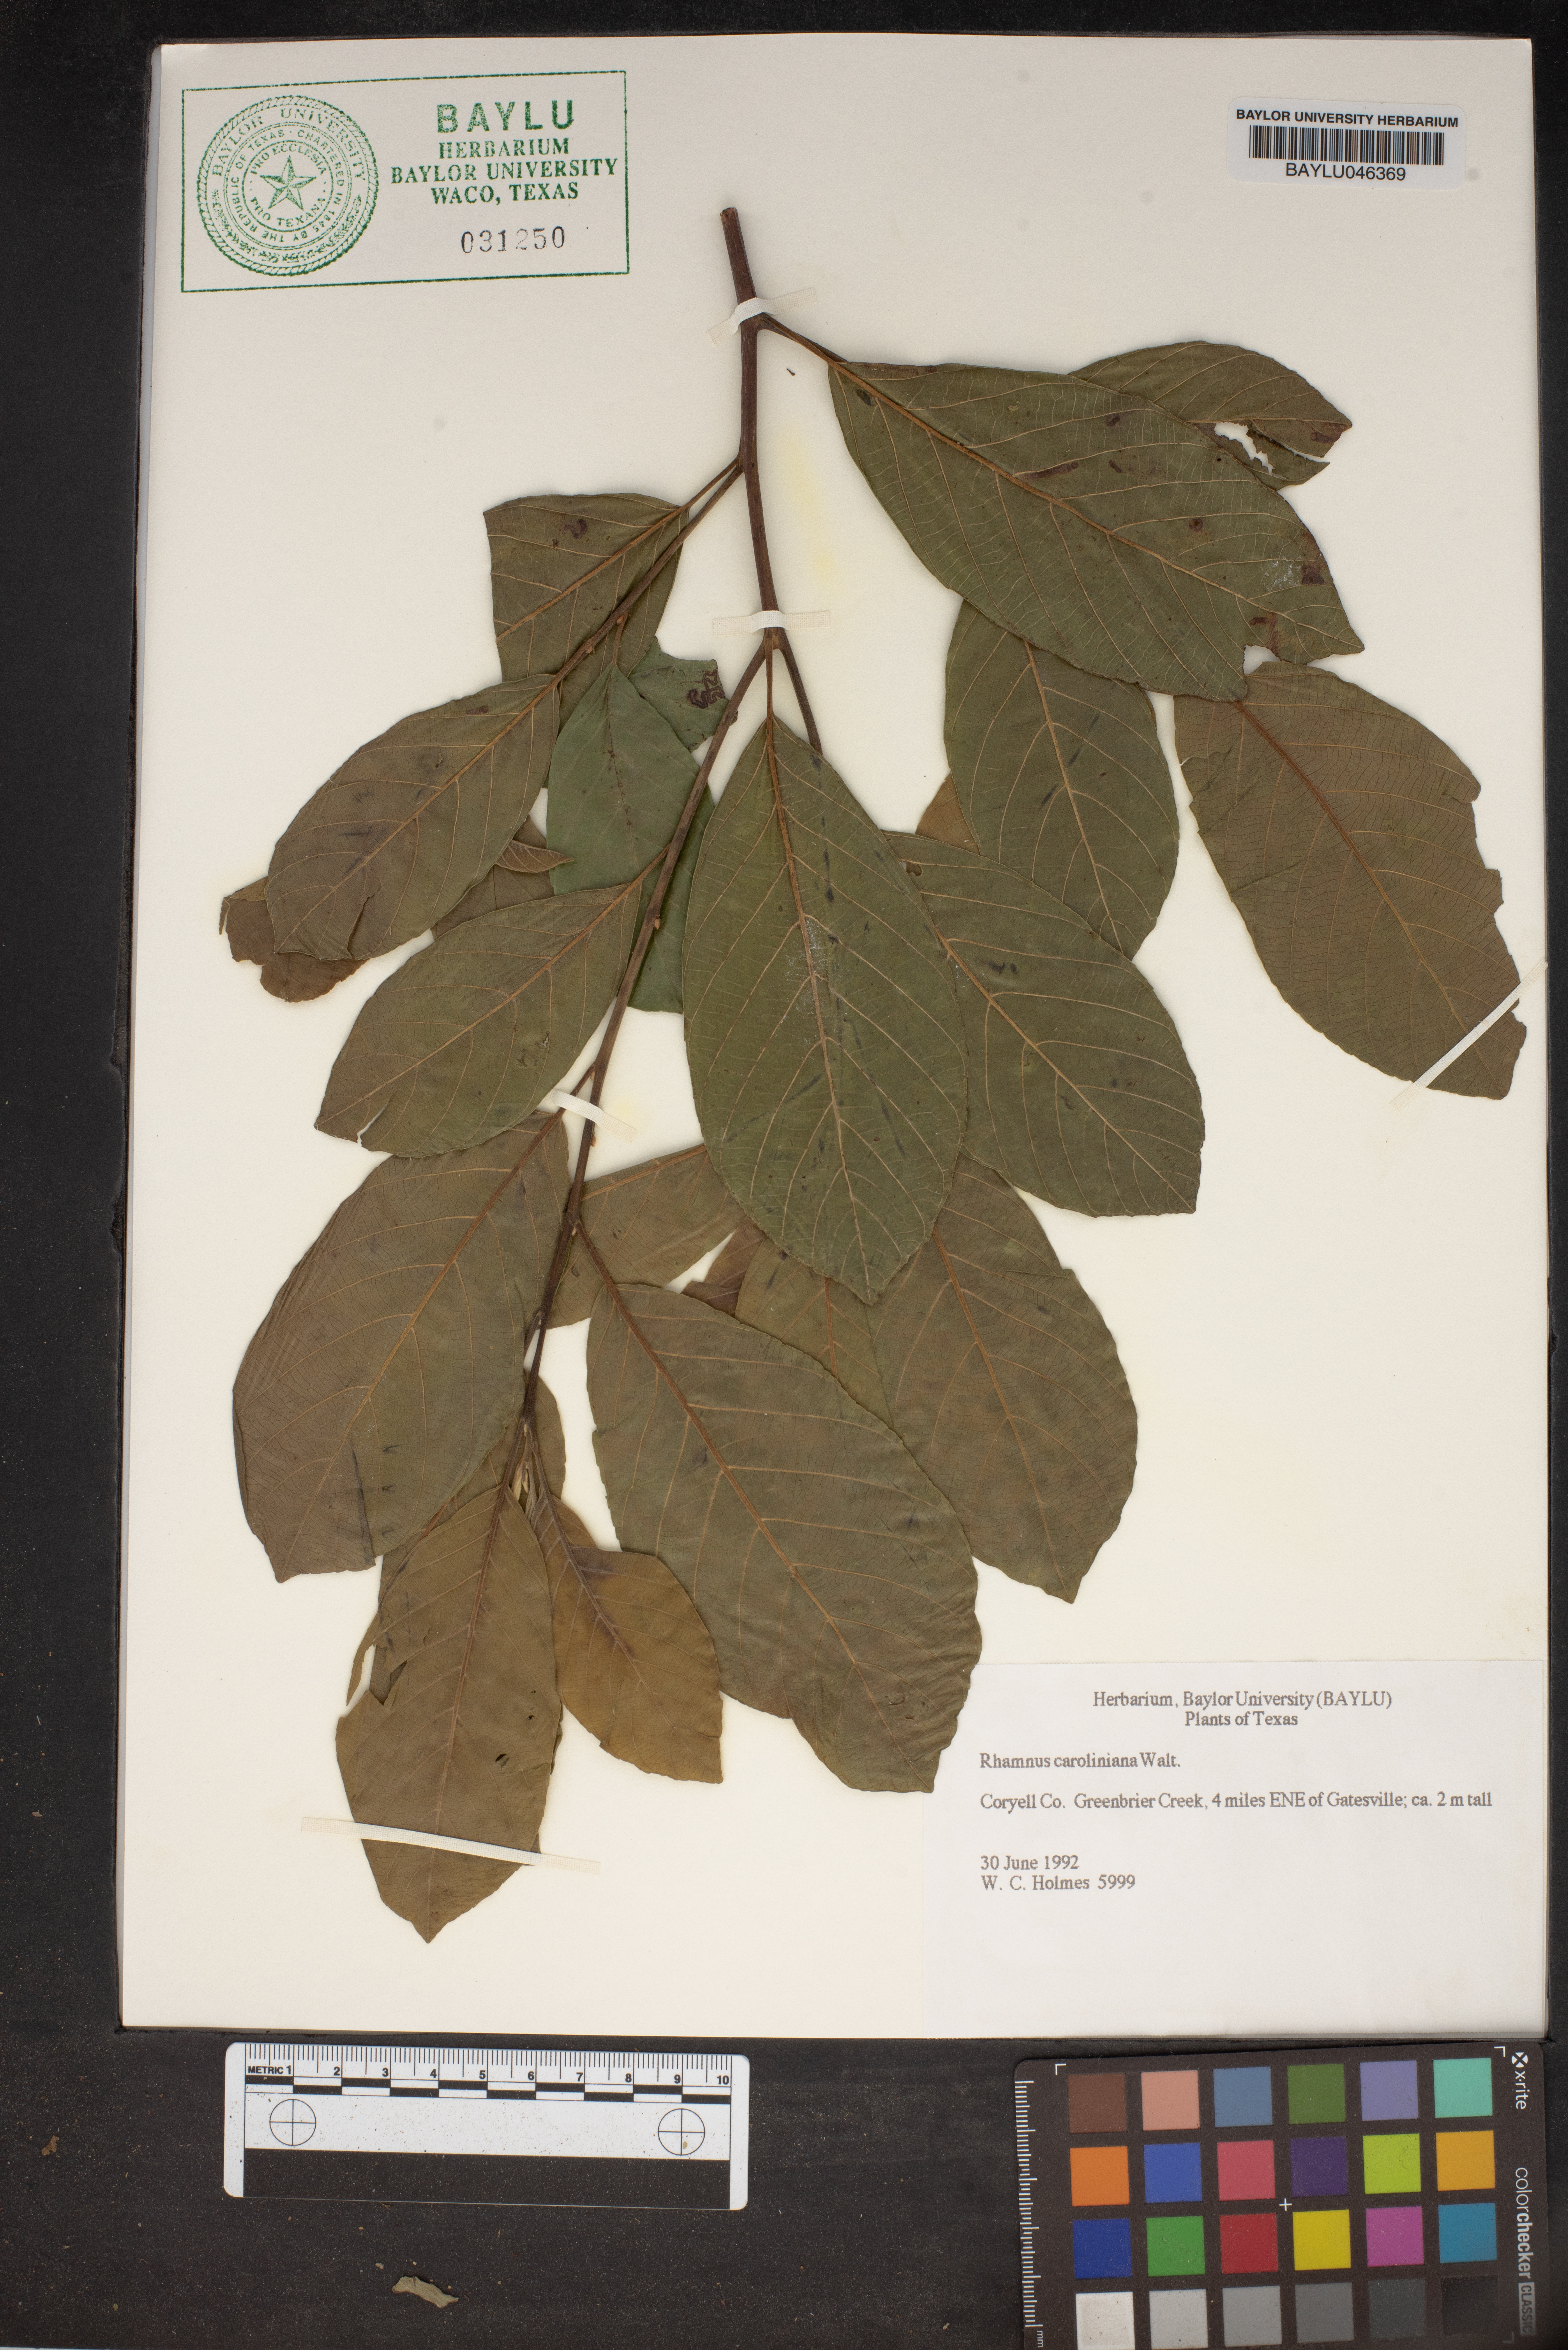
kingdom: Plantae
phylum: Tracheophyta
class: Magnoliopsida
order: Rosales
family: Rhamnaceae
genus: Frangula
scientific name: Frangula caroliniana
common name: Carolina buckthorn
